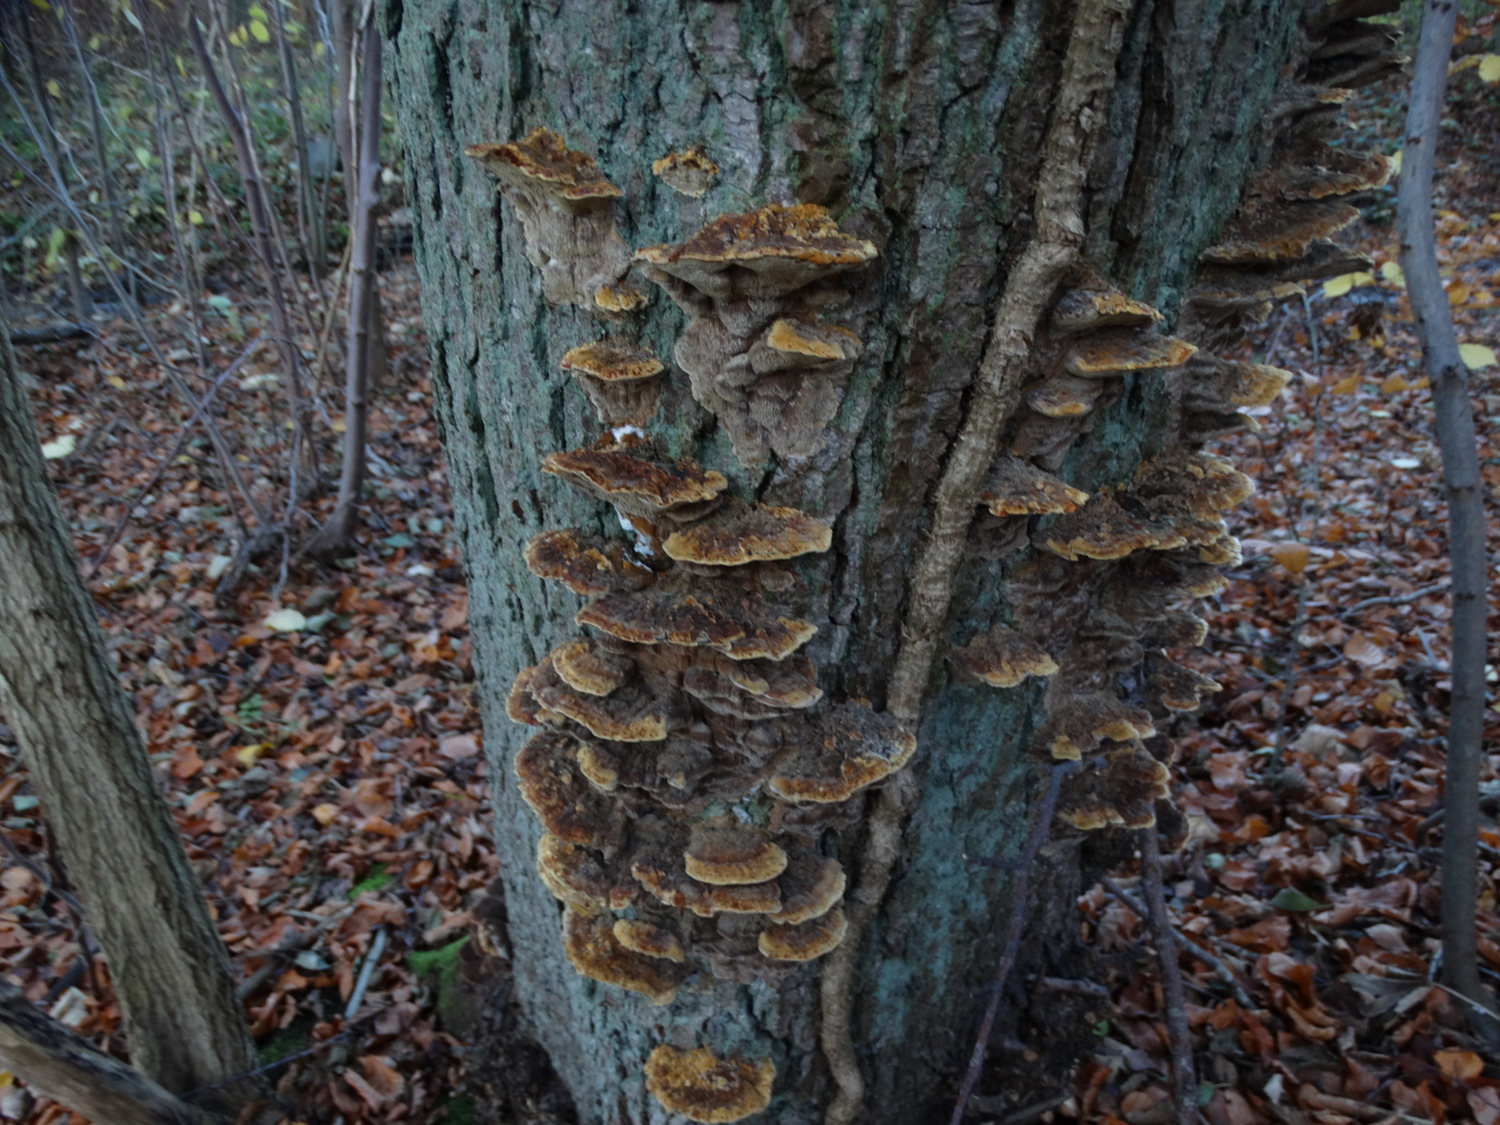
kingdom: Fungi
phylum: Basidiomycota
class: Agaricomycetes
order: Hymenochaetales
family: Hymenochaetaceae
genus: Xanthoporia
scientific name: Xanthoporia radiata
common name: elle-spejlporesvamp
